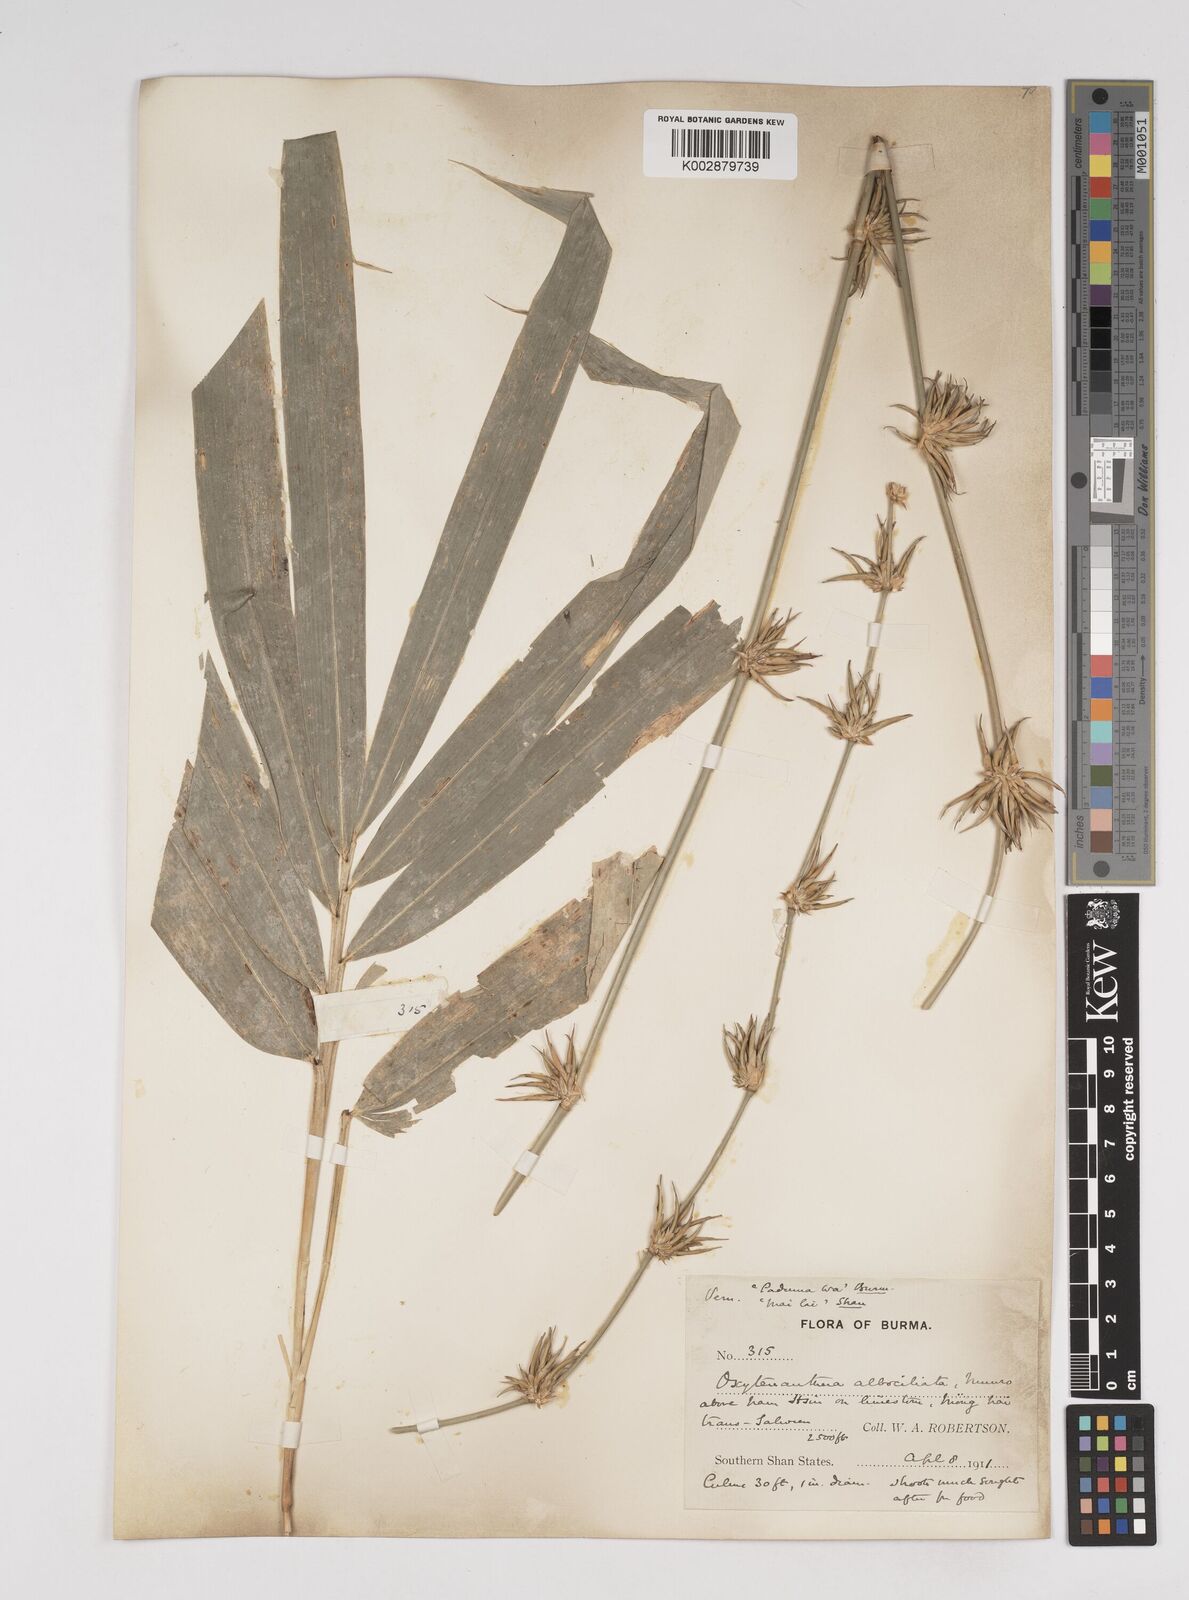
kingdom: Plantae
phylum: Tracheophyta
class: Liliopsida
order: Poales
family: Poaceae
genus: Gigantochloa
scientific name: Gigantochloa albociliata
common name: White-fringe gigantochloa
